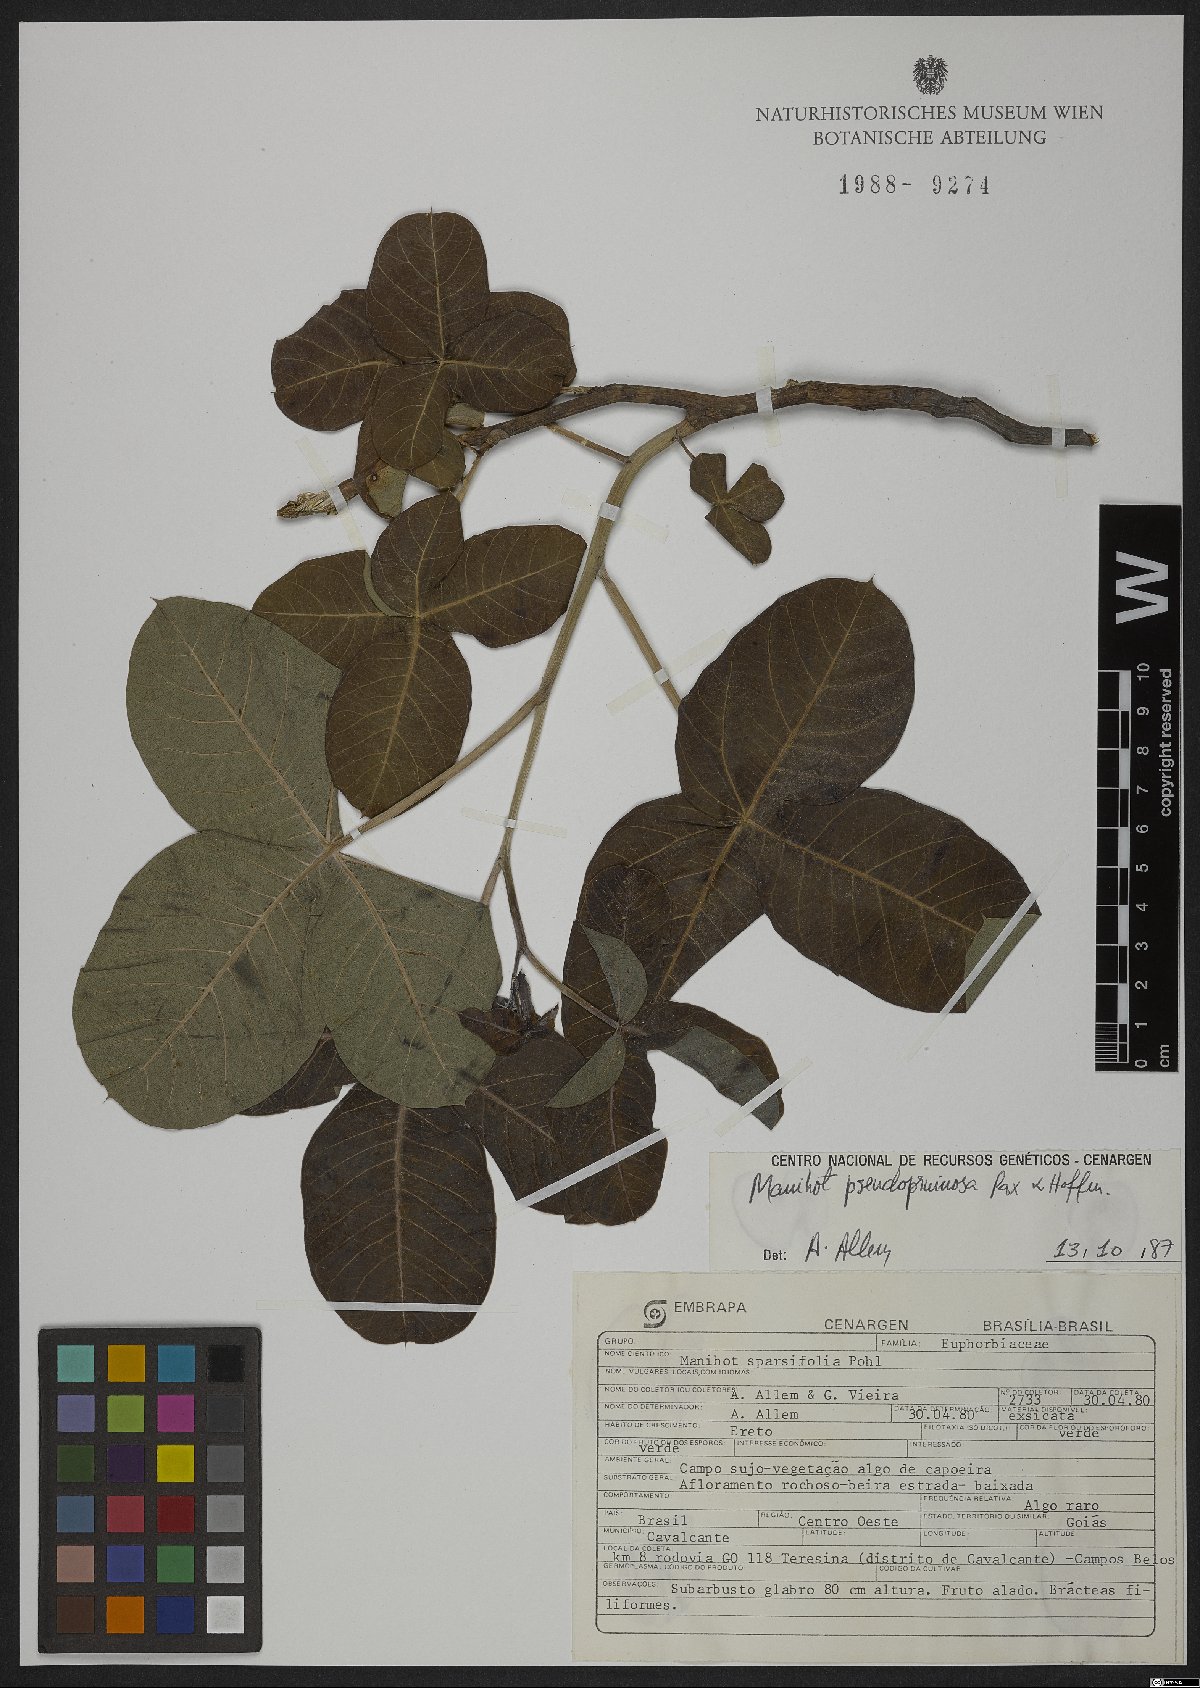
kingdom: Plantae
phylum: Tracheophyta
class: Magnoliopsida
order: Malpighiales
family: Euphorbiaceae
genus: Manihot
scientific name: Manihot pruinosa
